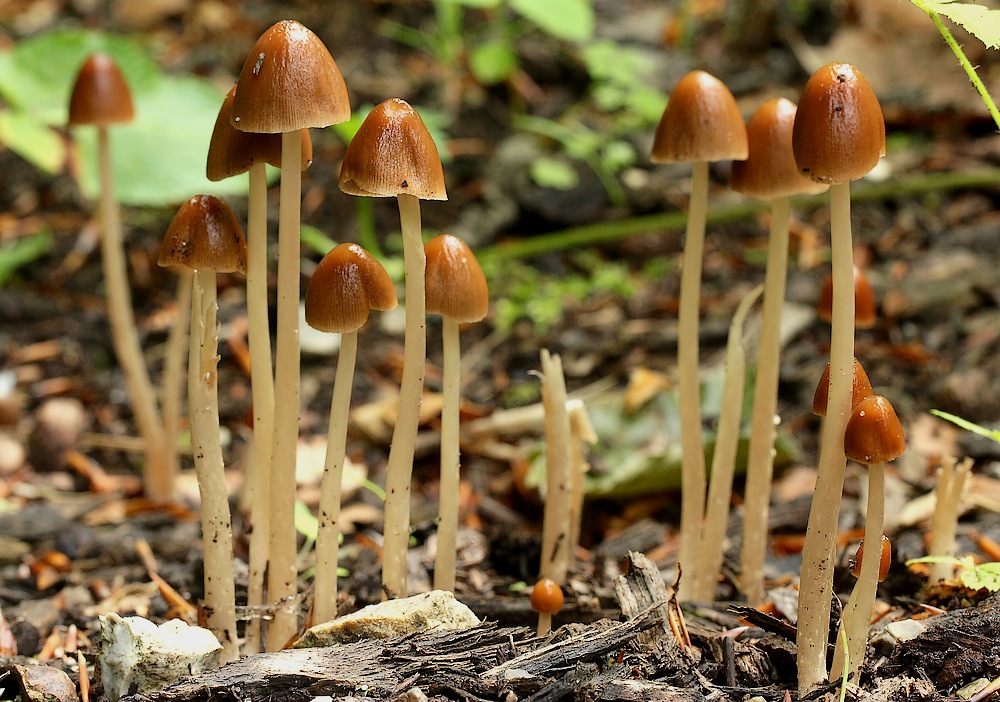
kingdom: Fungi
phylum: Basidiomycota
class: Agaricomycetes
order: Agaricales
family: Psathyrellaceae
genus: Parasola
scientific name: Parasola conopilea
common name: kegle-hjulhat
